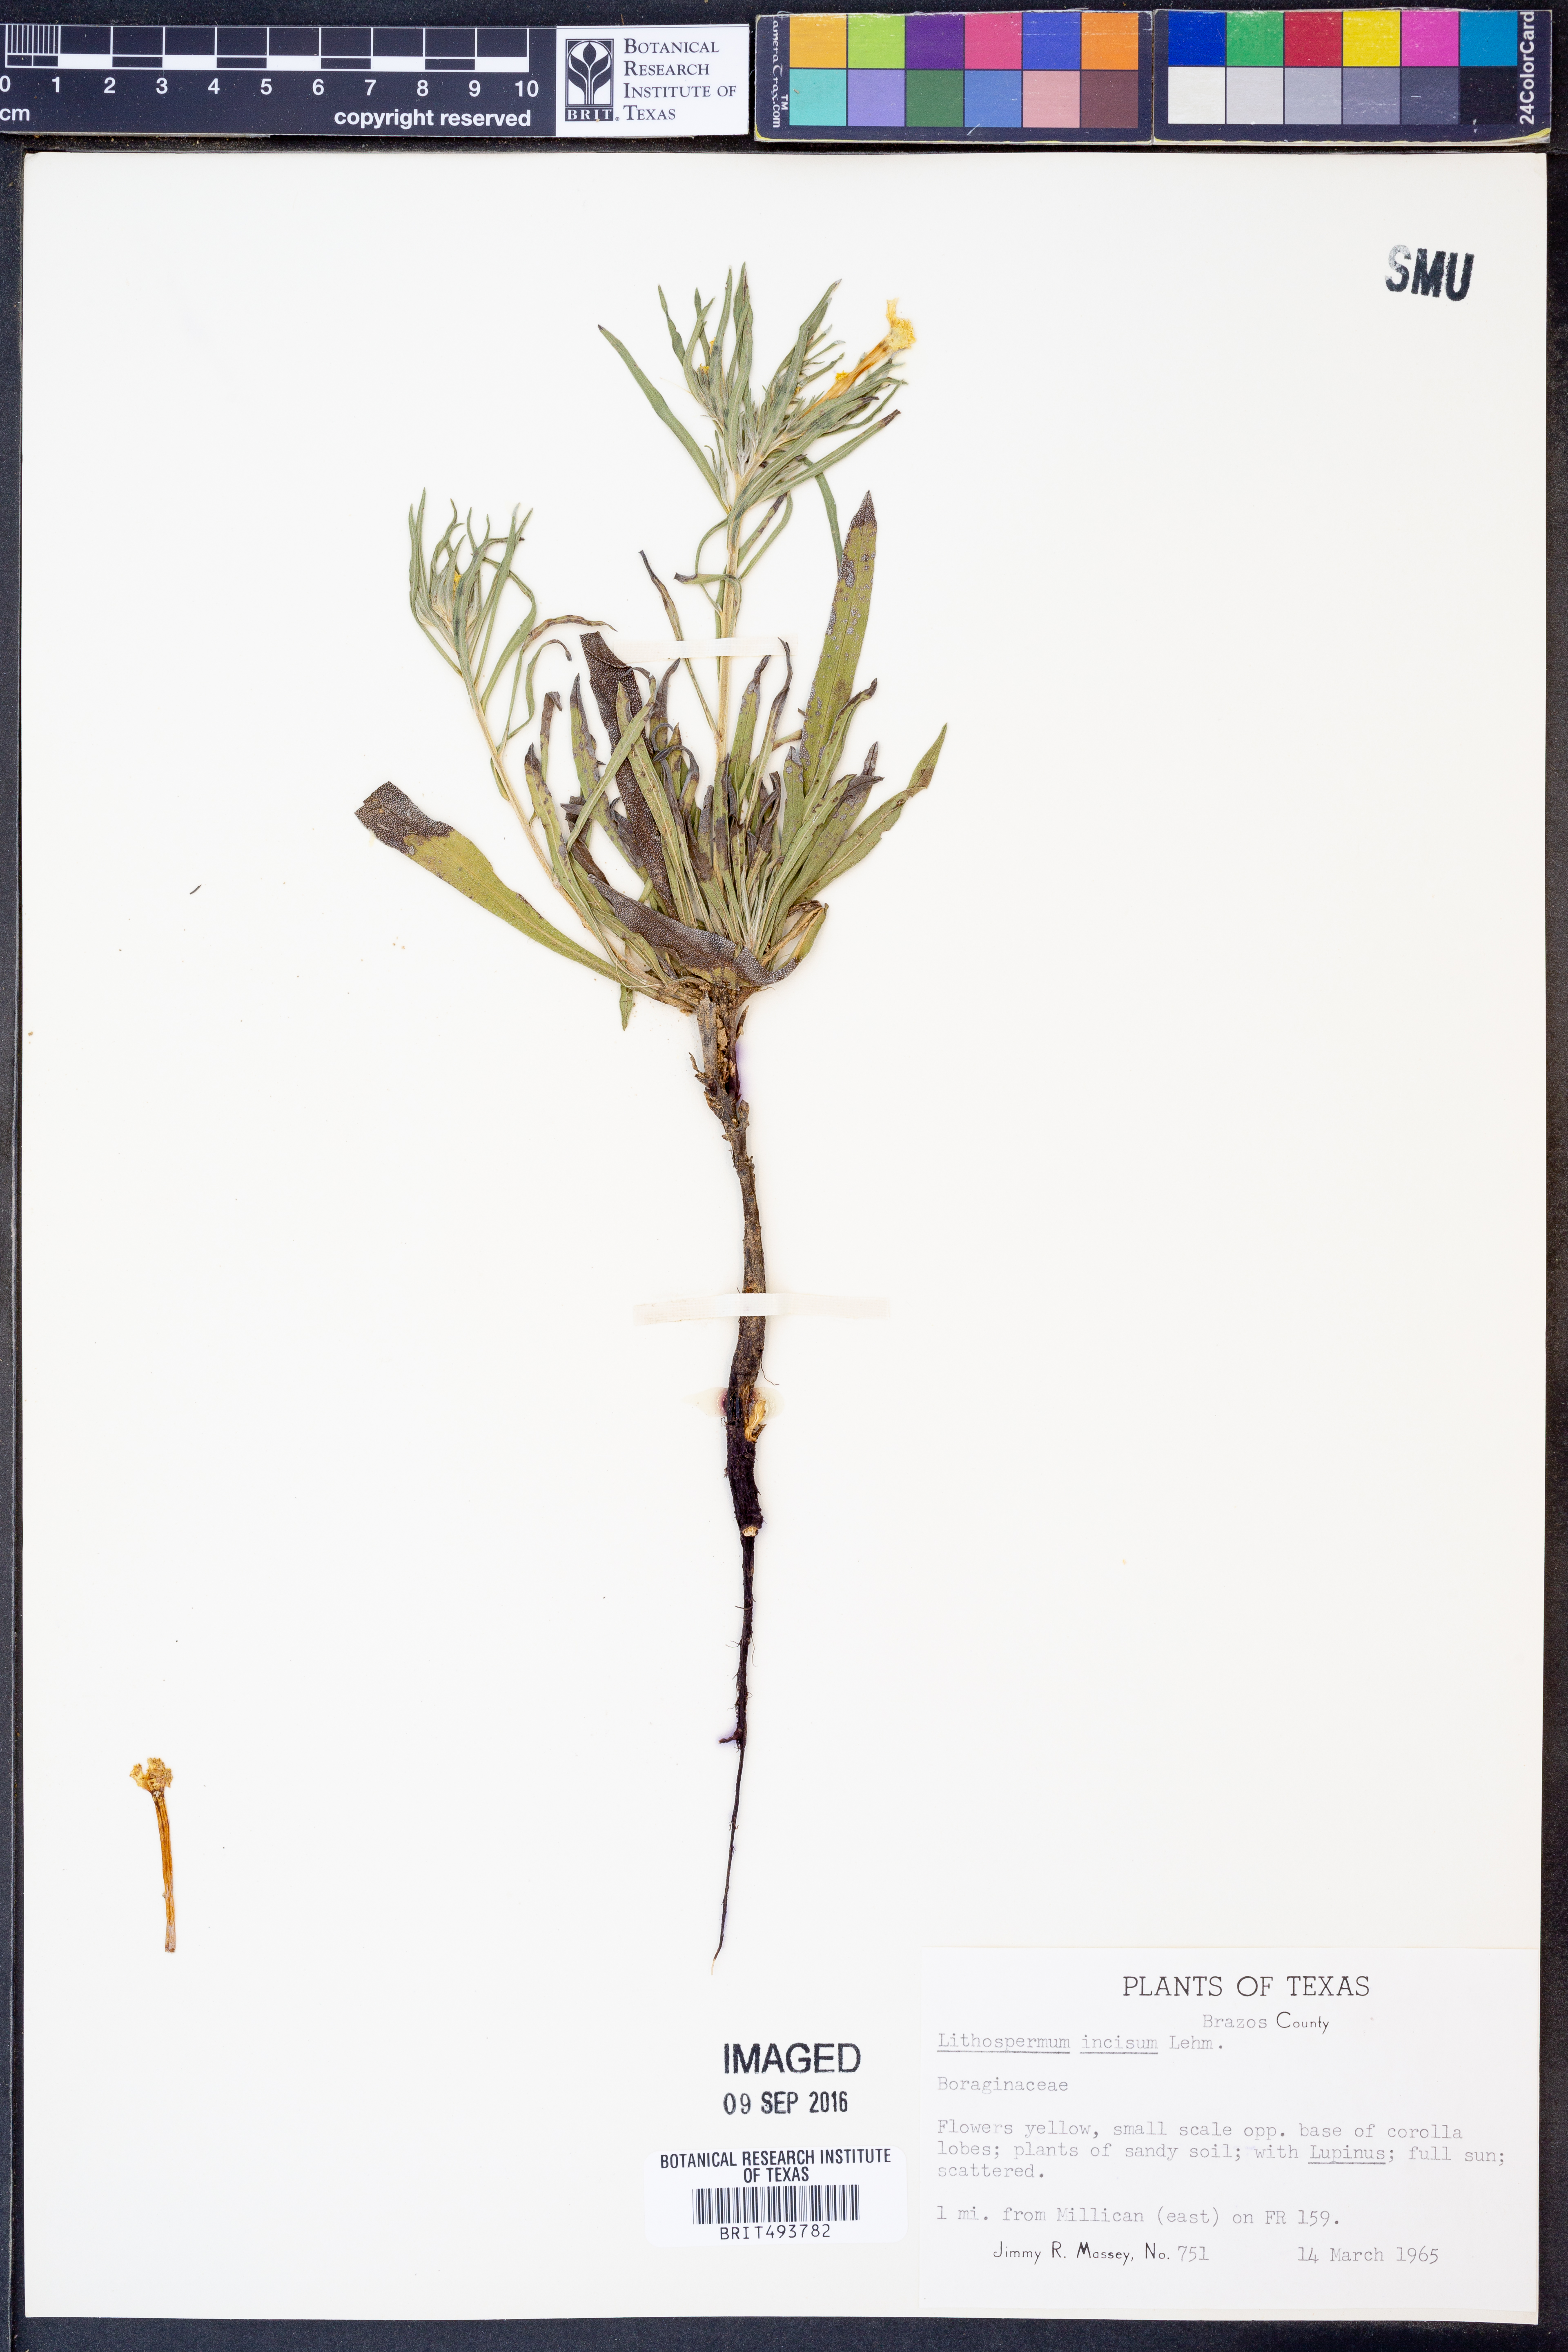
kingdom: Plantae
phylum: Tracheophyta
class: Magnoliopsida
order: Boraginales
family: Boraginaceae
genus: Lithospermum
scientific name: Lithospermum incisum
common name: Fringed gromwell
